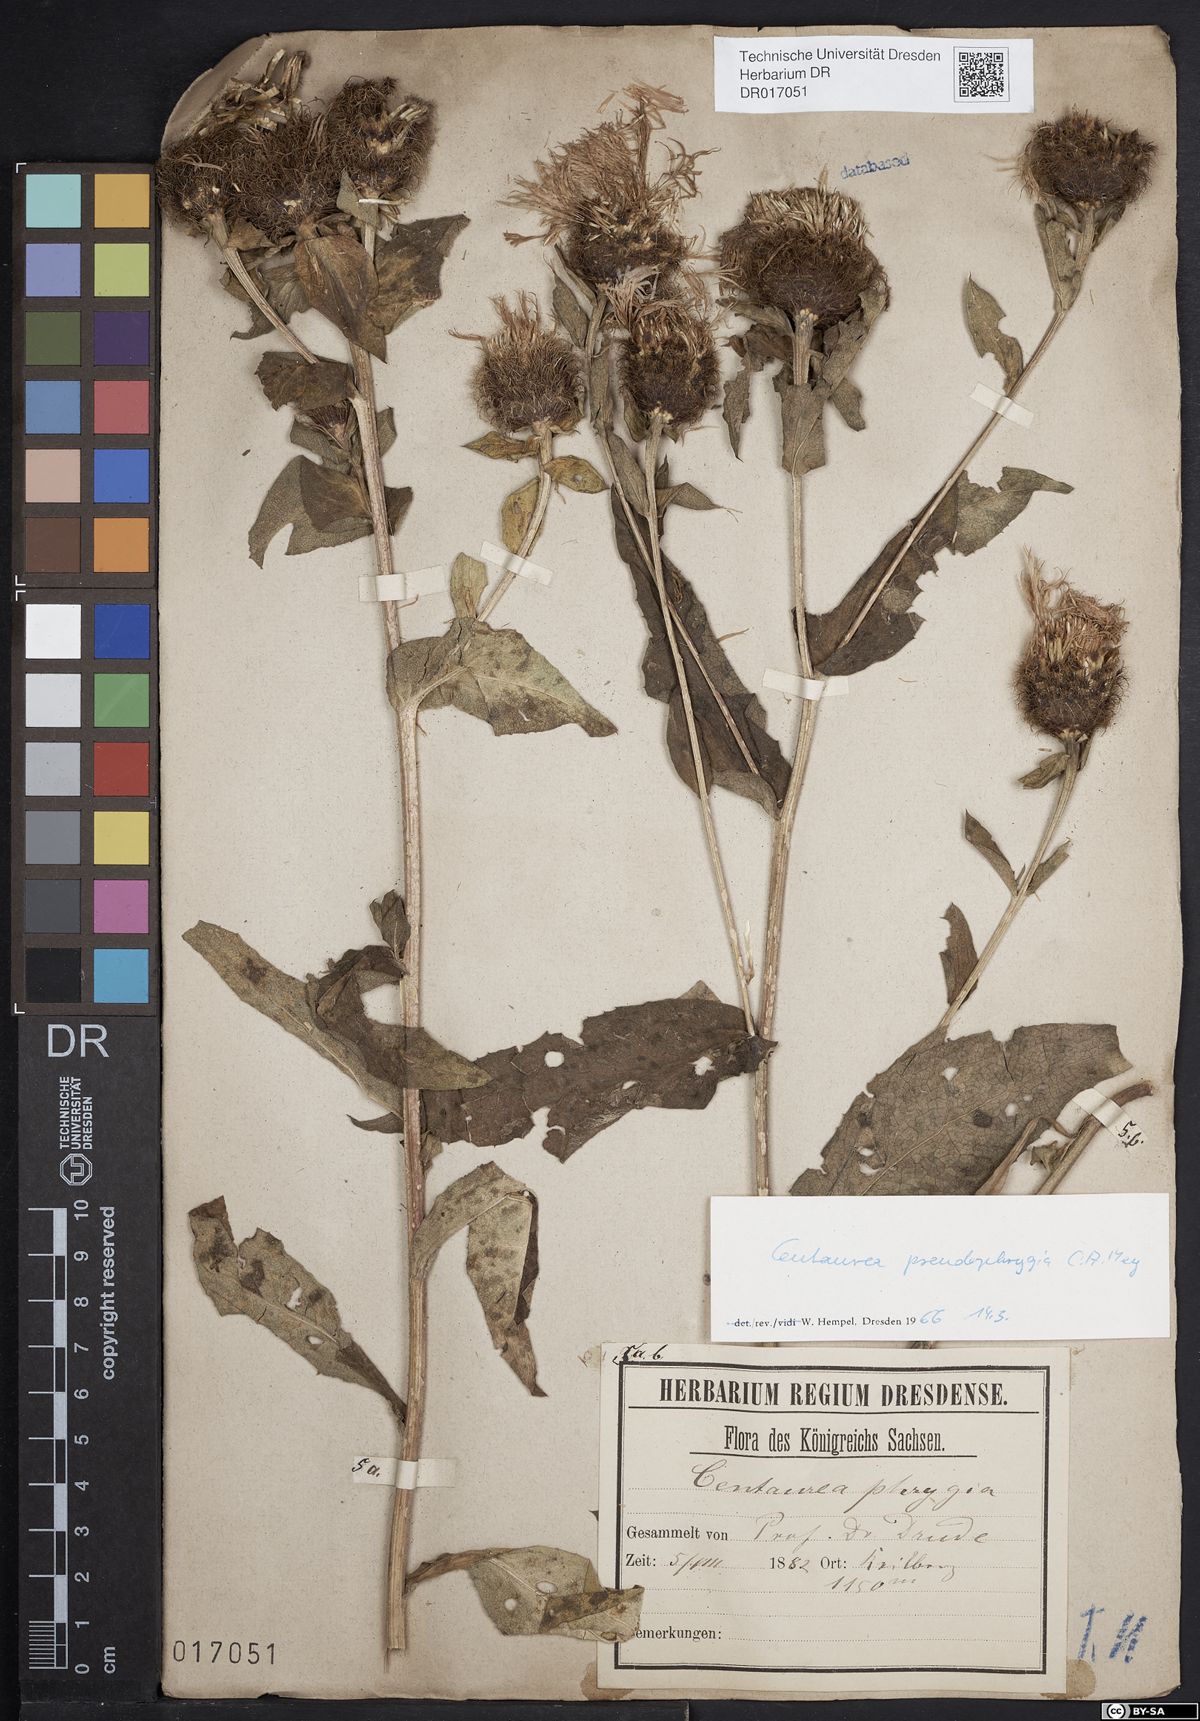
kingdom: Plantae
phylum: Tracheophyta
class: Magnoliopsida
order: Asterales
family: Asteraceae
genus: Centaurea
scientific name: Centaurea pseudophrygia
